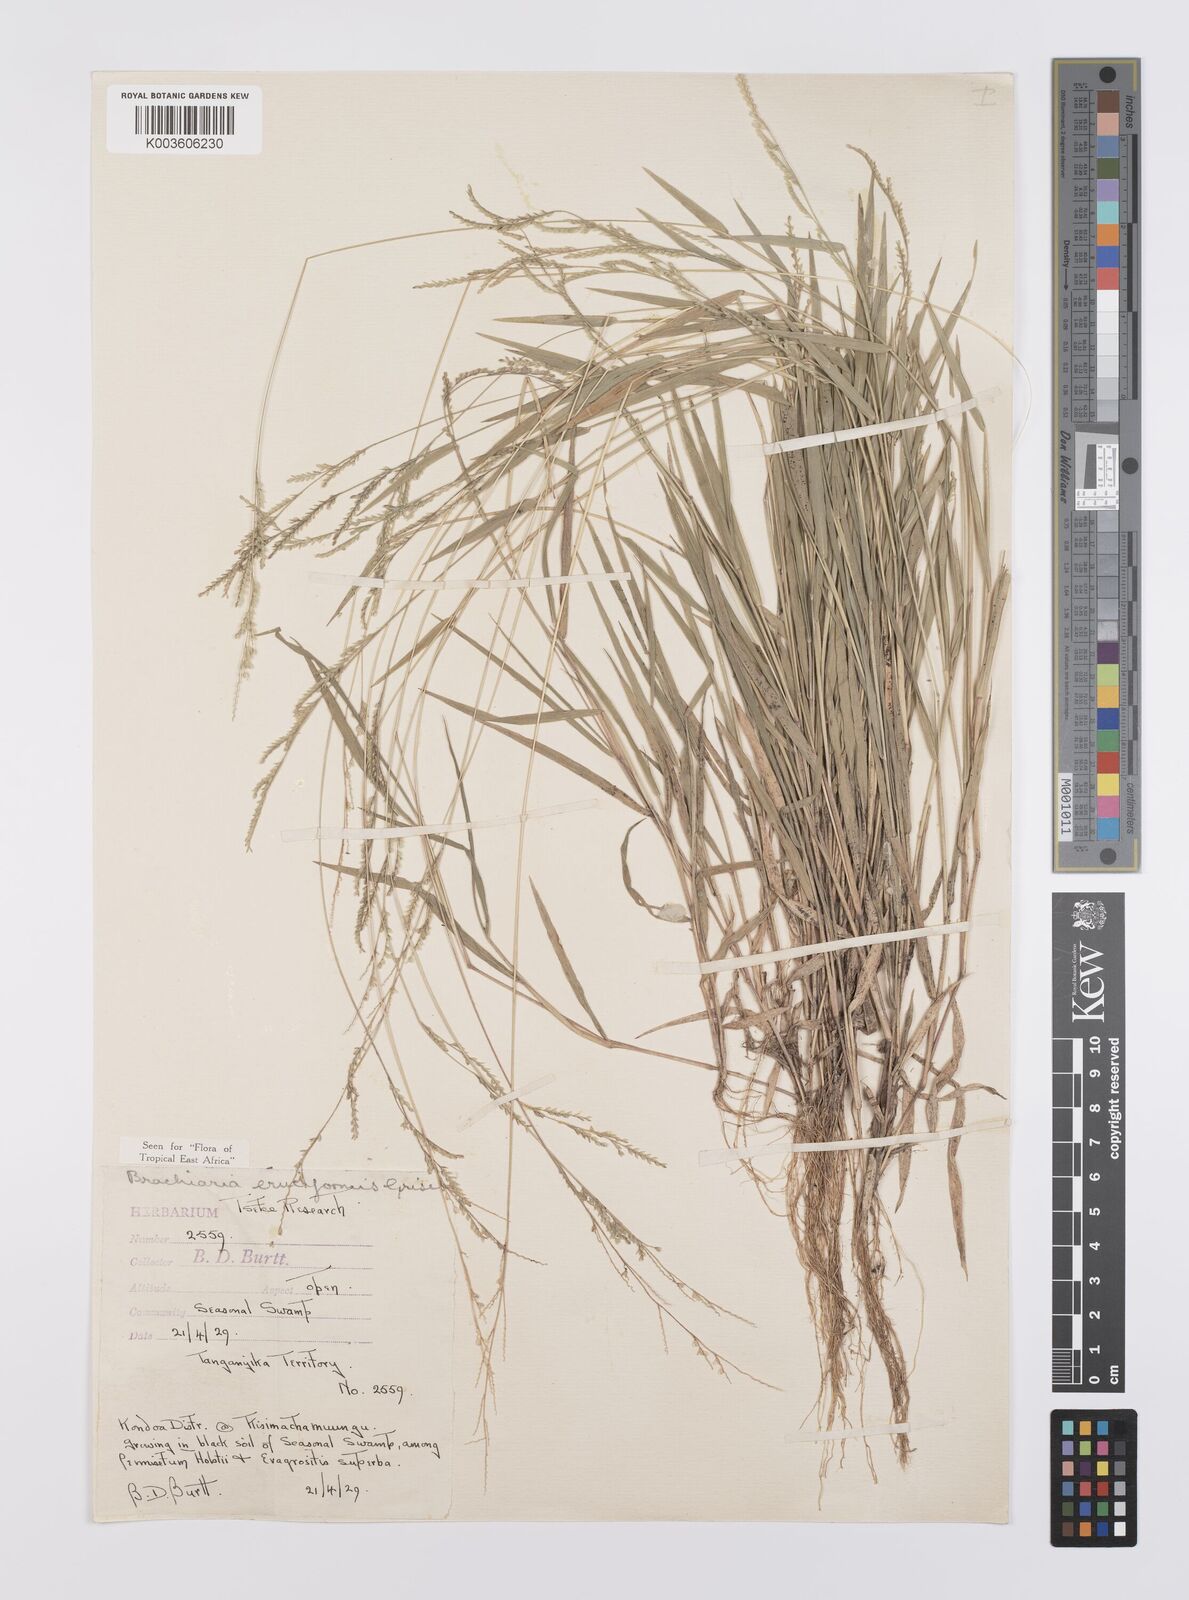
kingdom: Plantae
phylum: Tracheophyta
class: Liliopsida
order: Poales
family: Poaceae
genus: Moorochloa
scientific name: Moorochloa eruciformis
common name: Sweet signalgrass
